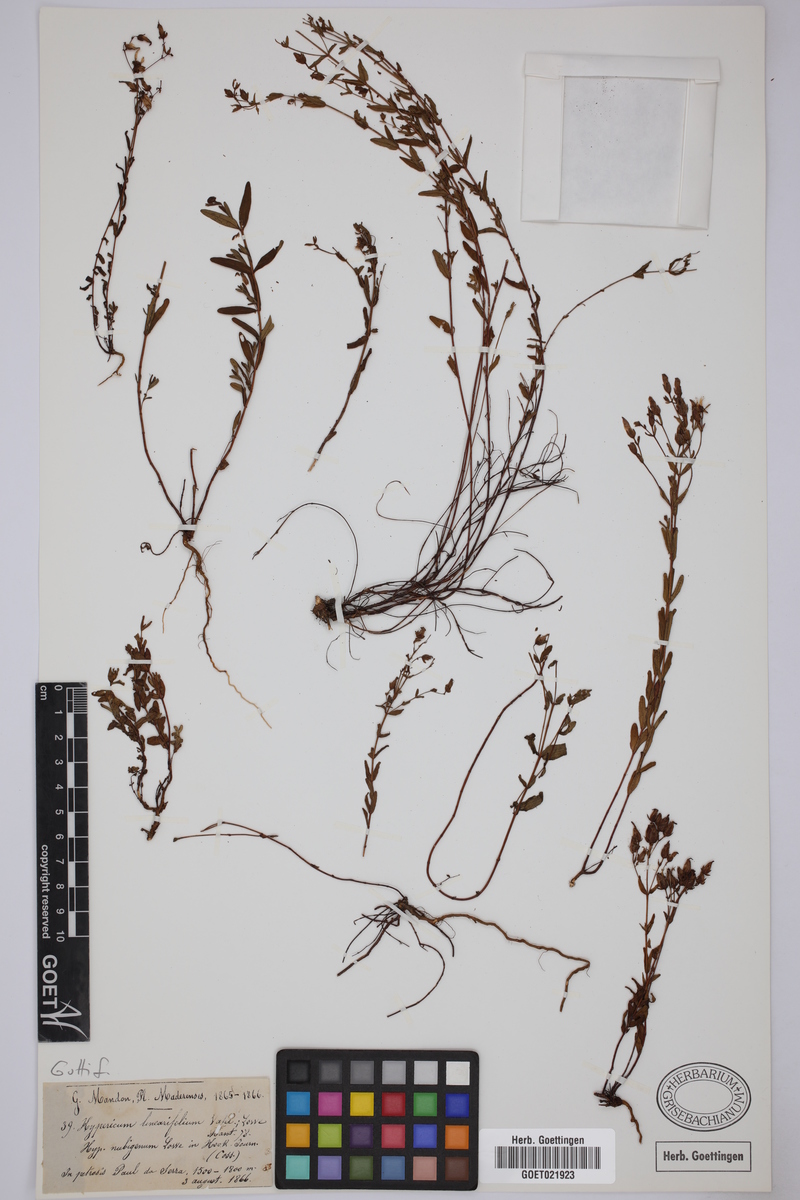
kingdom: Plantae
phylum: Tracheophyta
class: Magnoliopsida
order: Malpighiales
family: Hypericaceae
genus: Hypericum
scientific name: Hypericum linariifolium
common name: Toadflax-leaved st. john's-wort
